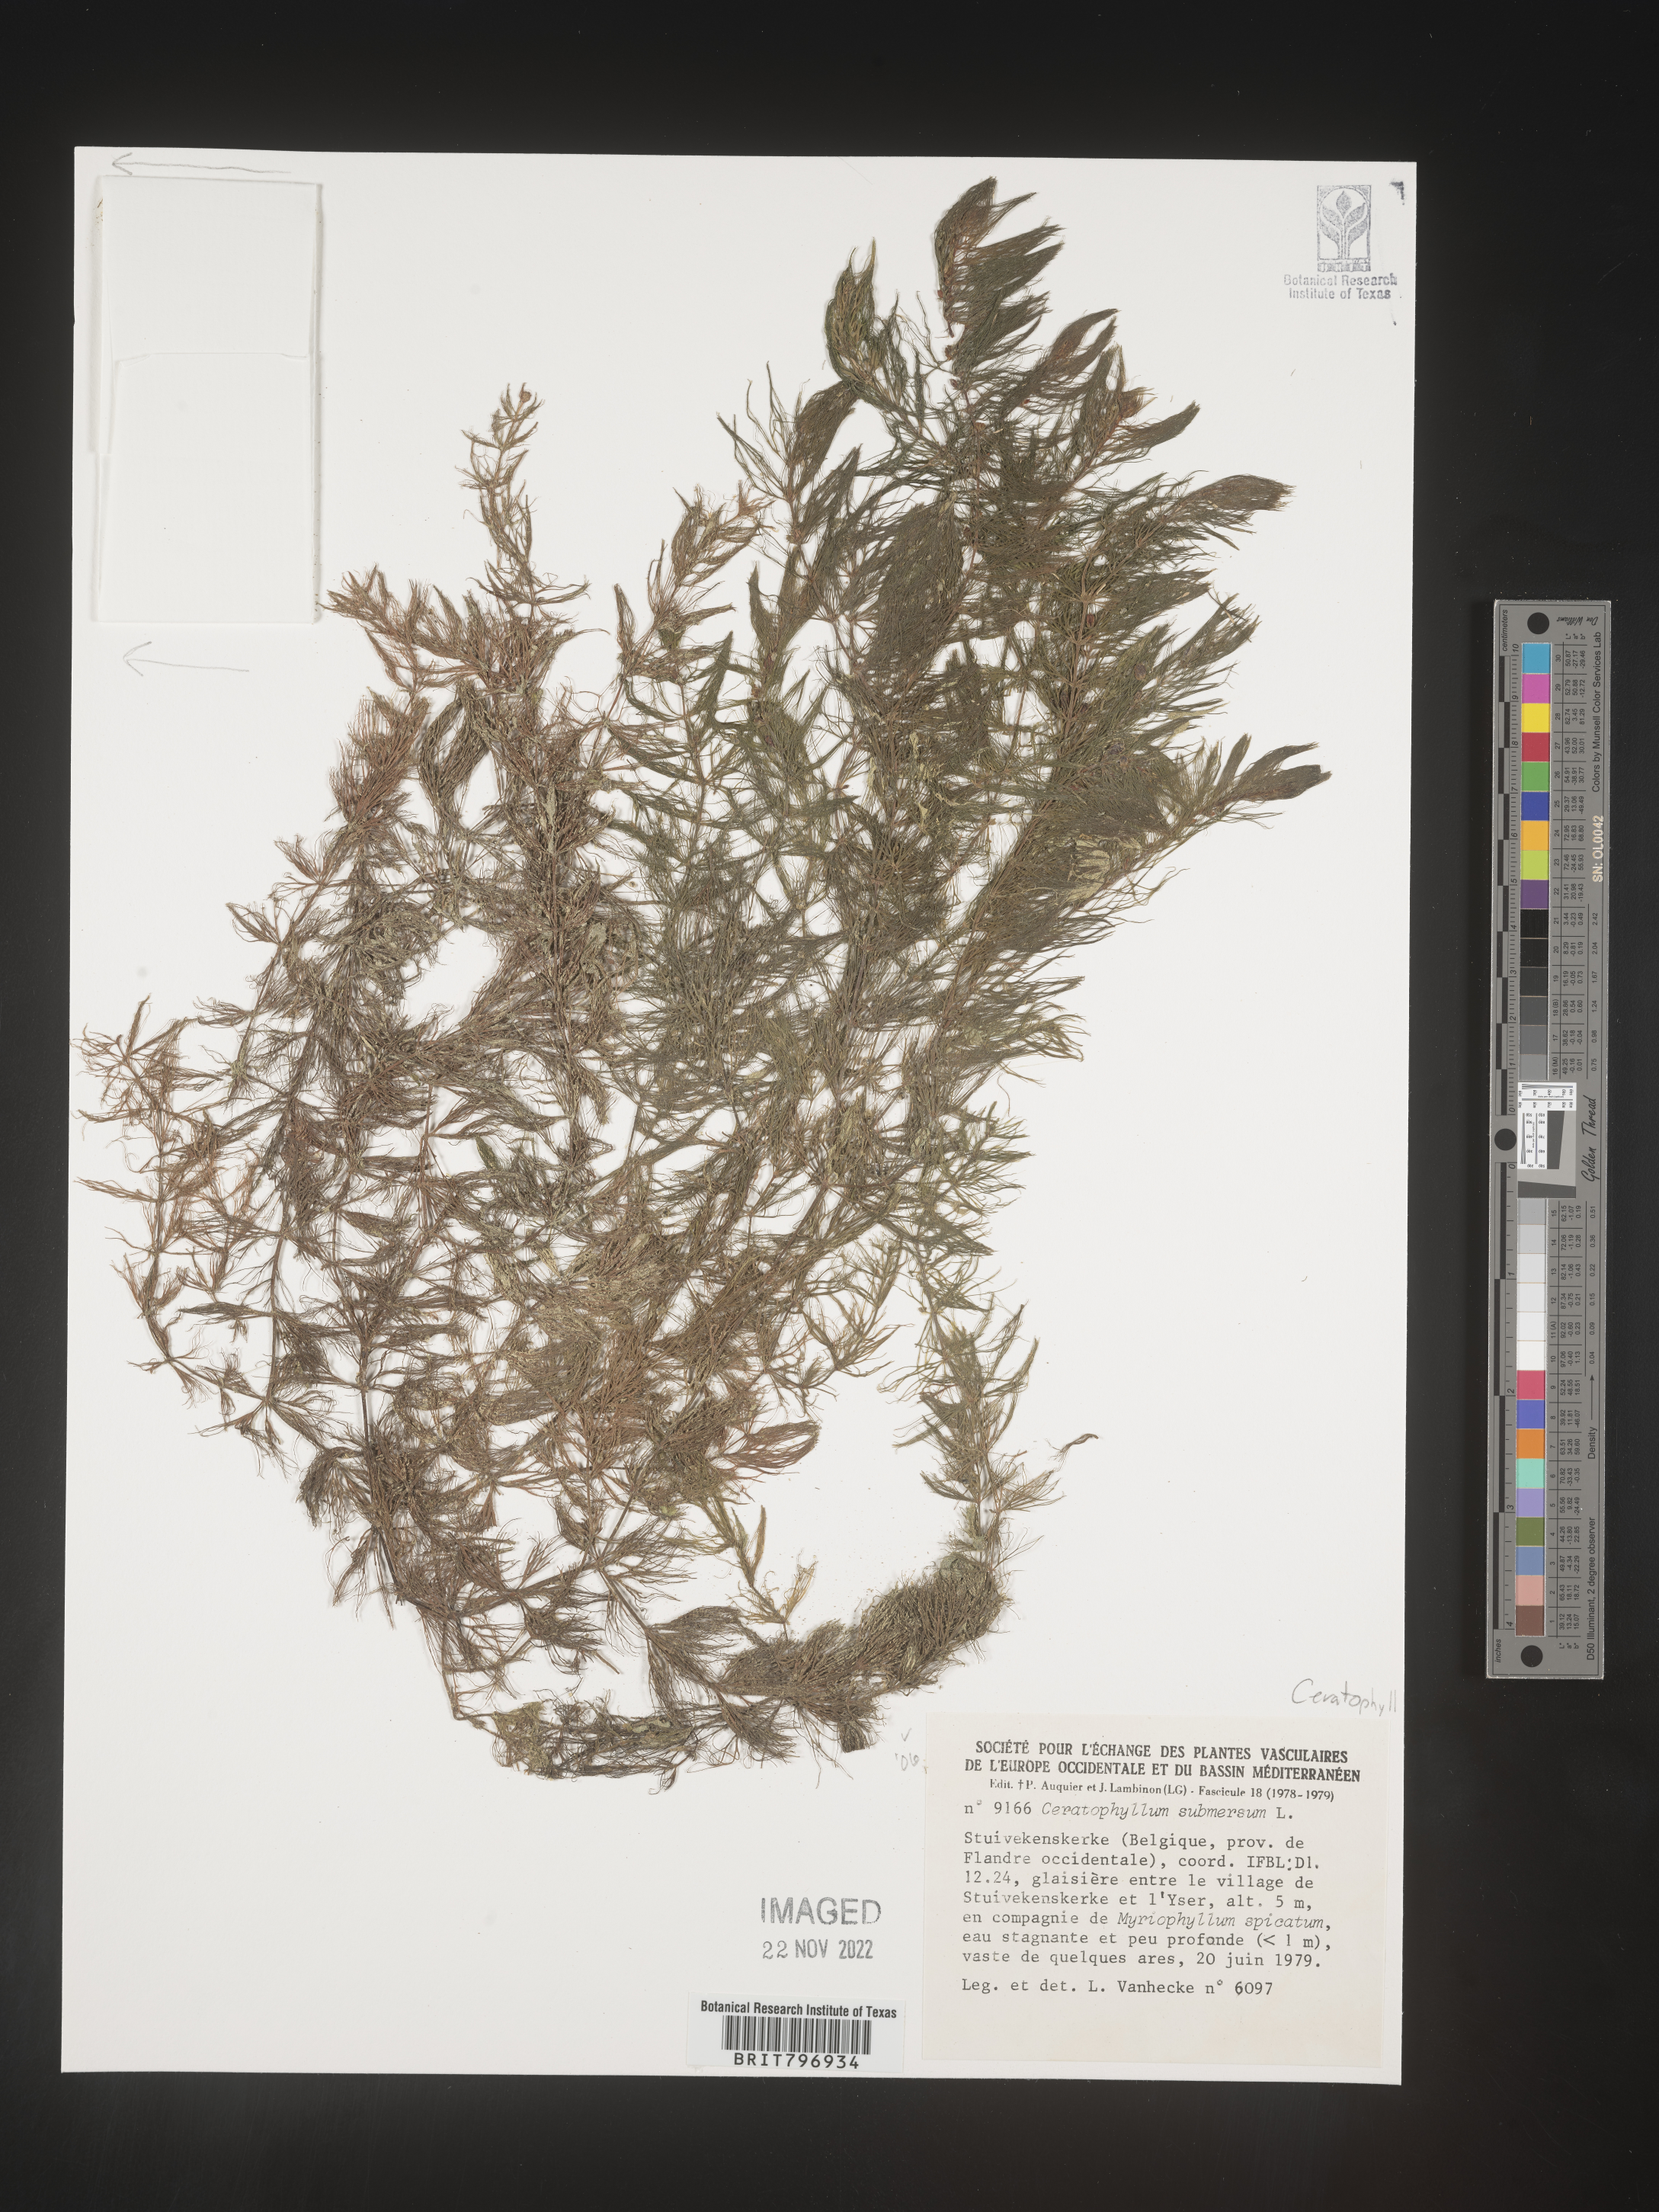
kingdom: Plantae
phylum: Tracheophyta
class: Magnoliopsida
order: Ceratophyllales
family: Ceratophyllaceae
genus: Ceratophyllum
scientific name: Ceratophyllum
